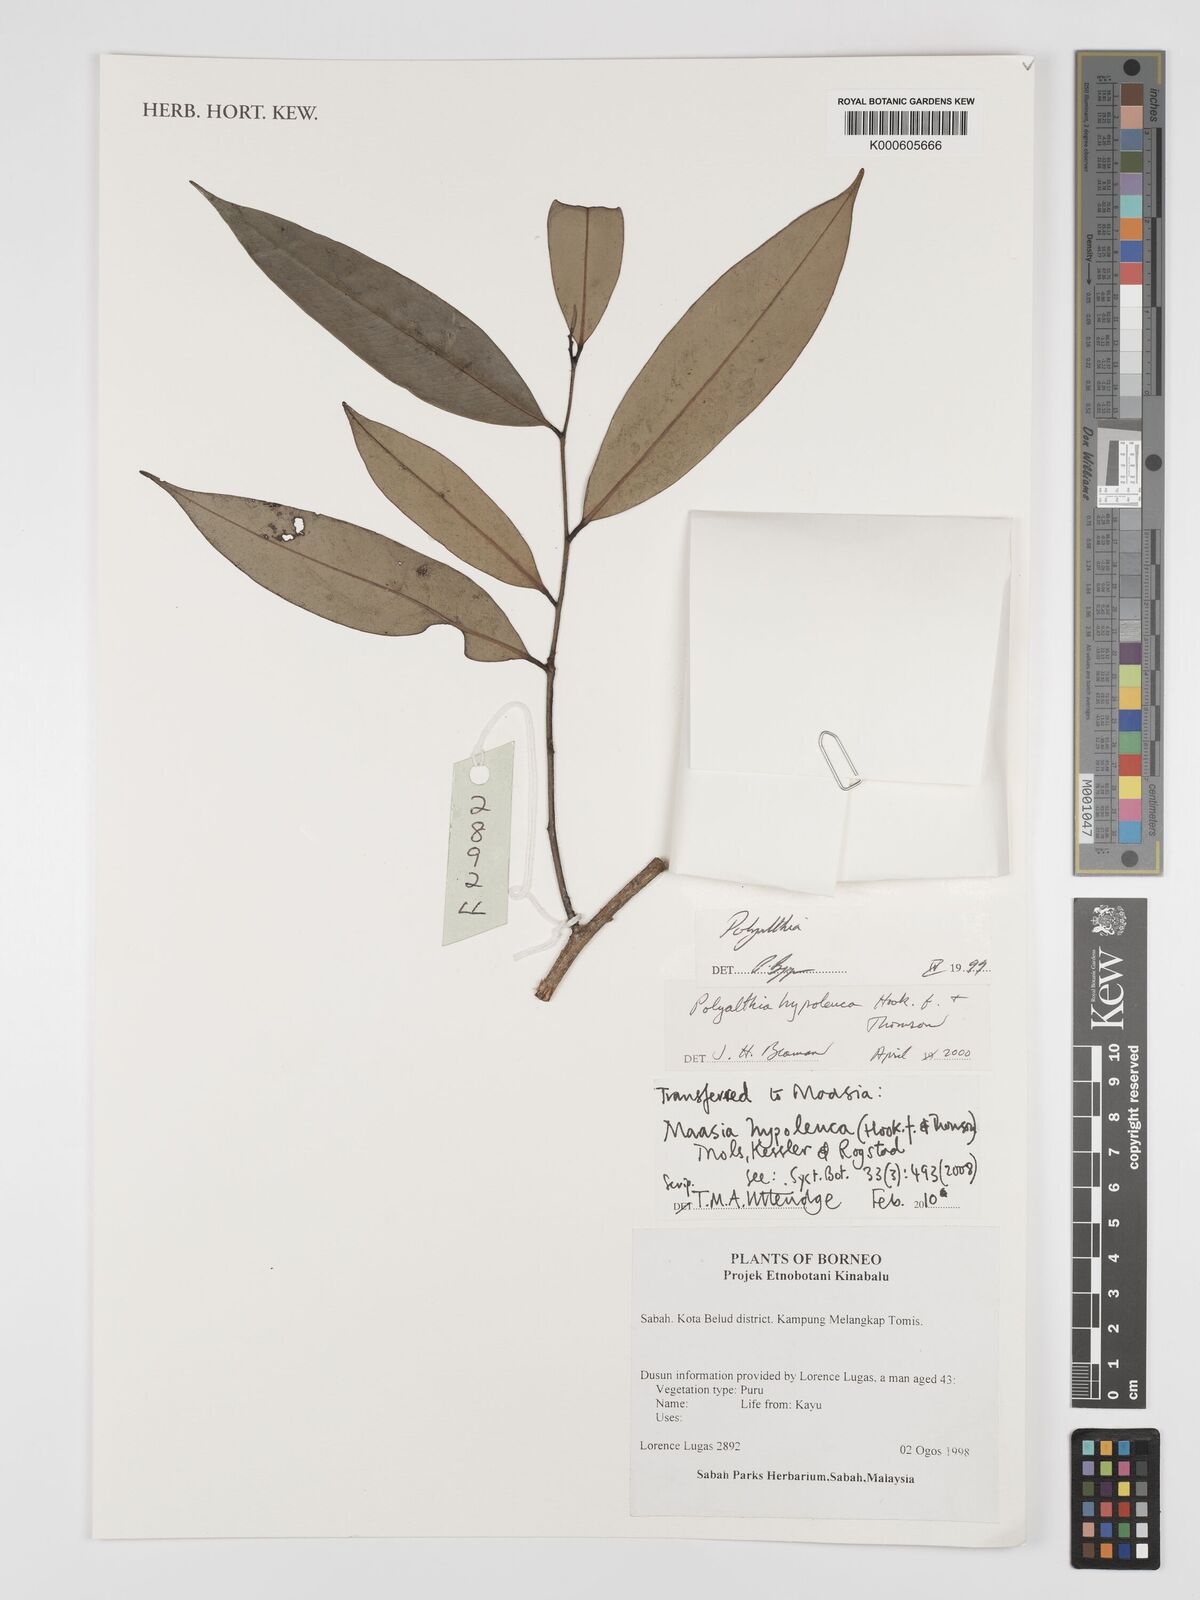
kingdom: Plantae
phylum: Tracheophyta
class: Magnoliopsida
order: Magnoliales
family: Annonaceae
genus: Maasia
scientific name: Maasia hypoleuca
